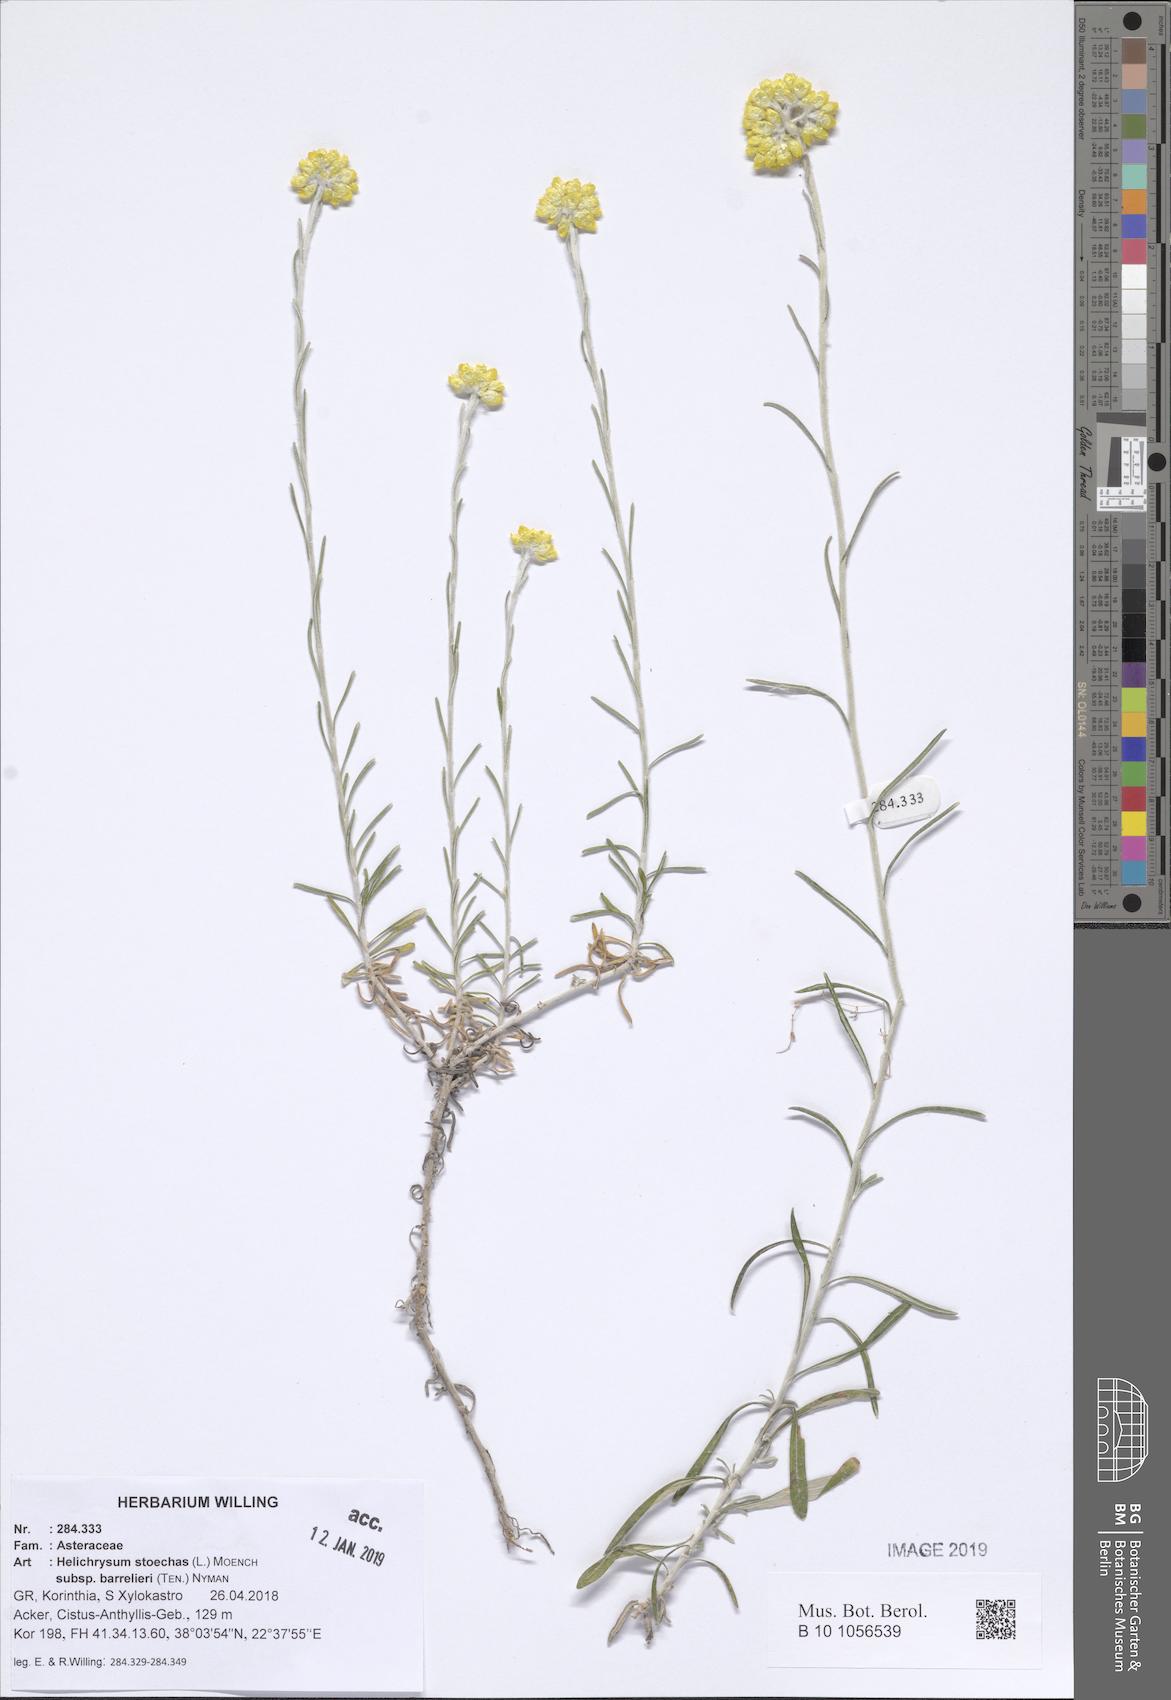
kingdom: Plantae
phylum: Tracheophyta
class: Magnoliopsida
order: Asterales
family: Asteraceae
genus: Helichrysum
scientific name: Helichrysum stoechas
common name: Goldilocks
